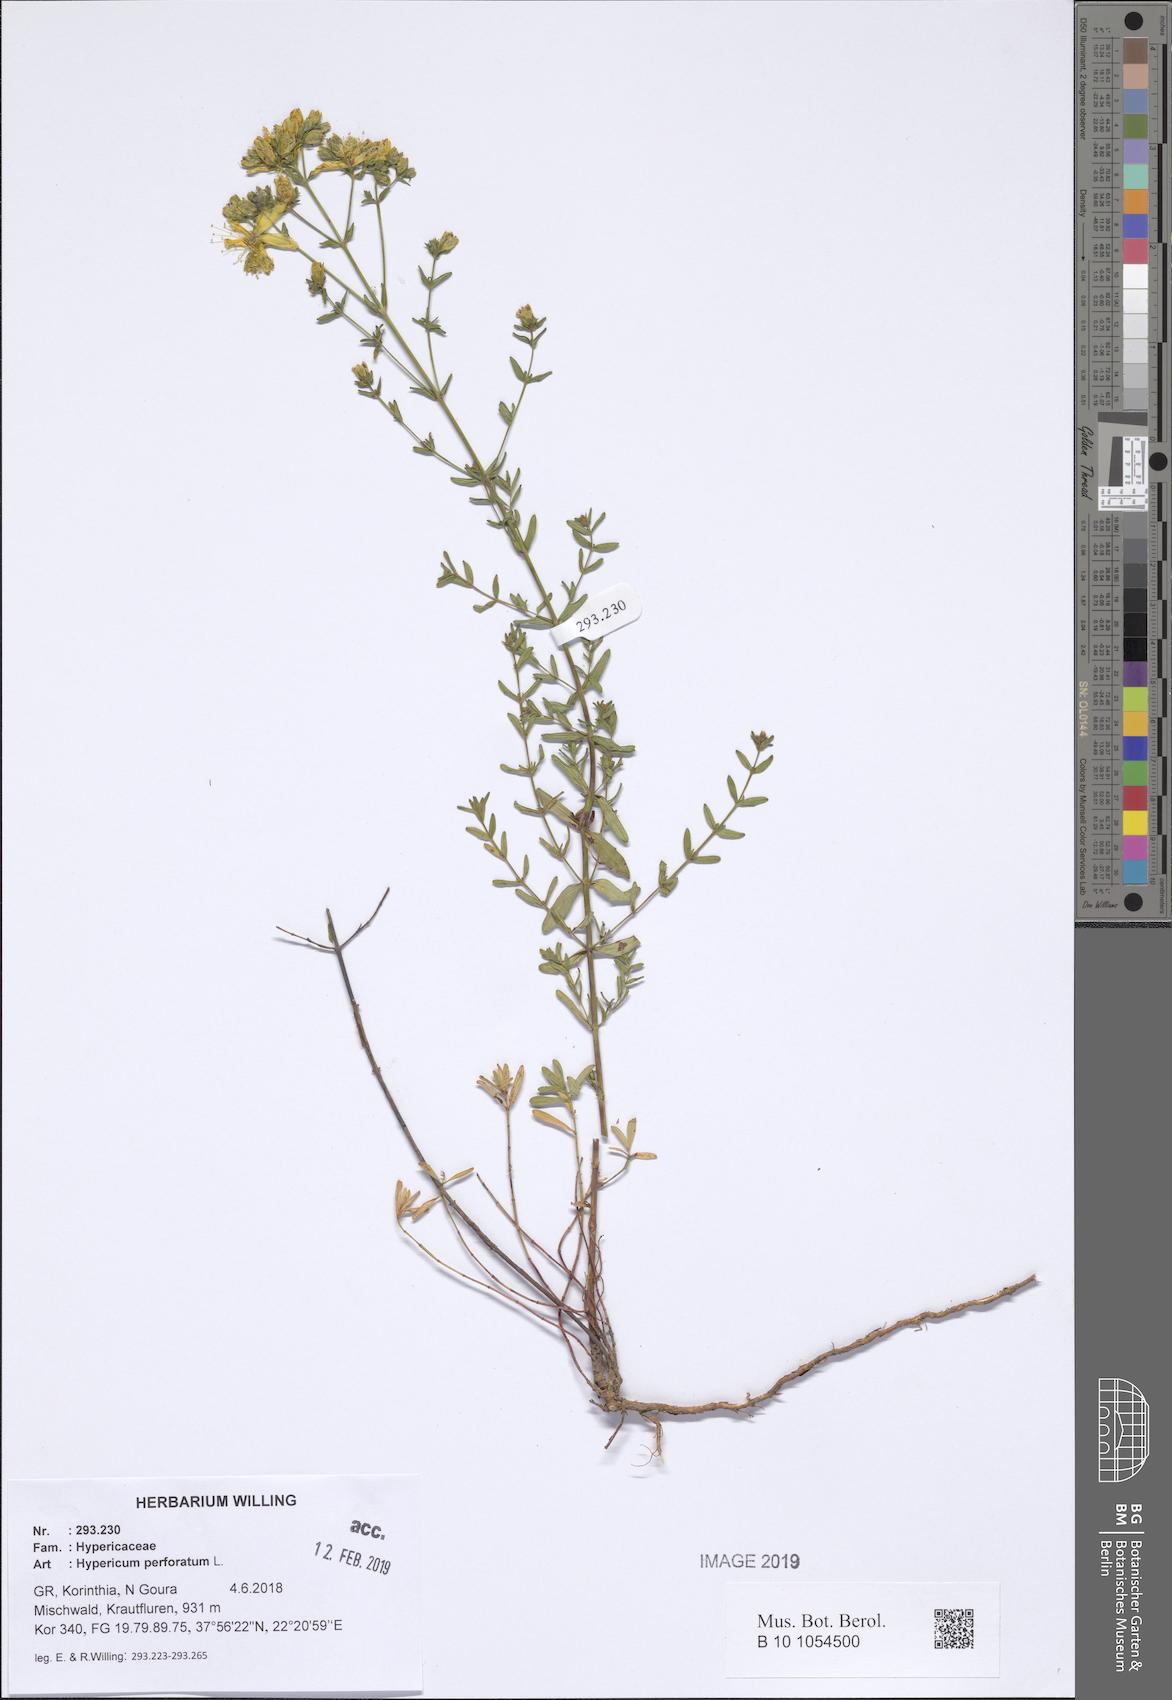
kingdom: Plantae
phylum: Tracheophyta
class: Magnoliopsida
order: Malpighiales
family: Hypericaceae
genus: Hypericum
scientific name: Hypericum perforatum
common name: Common st. johnswort
